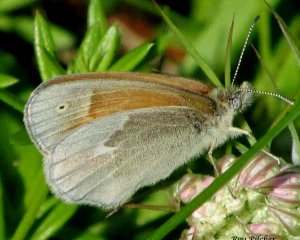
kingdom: Animalia
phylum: Arthropoda
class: Insecta
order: Lepidoptera
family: Nymphalidae
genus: Coenonympha
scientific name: Coenonympha tullia
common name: Large Heath
